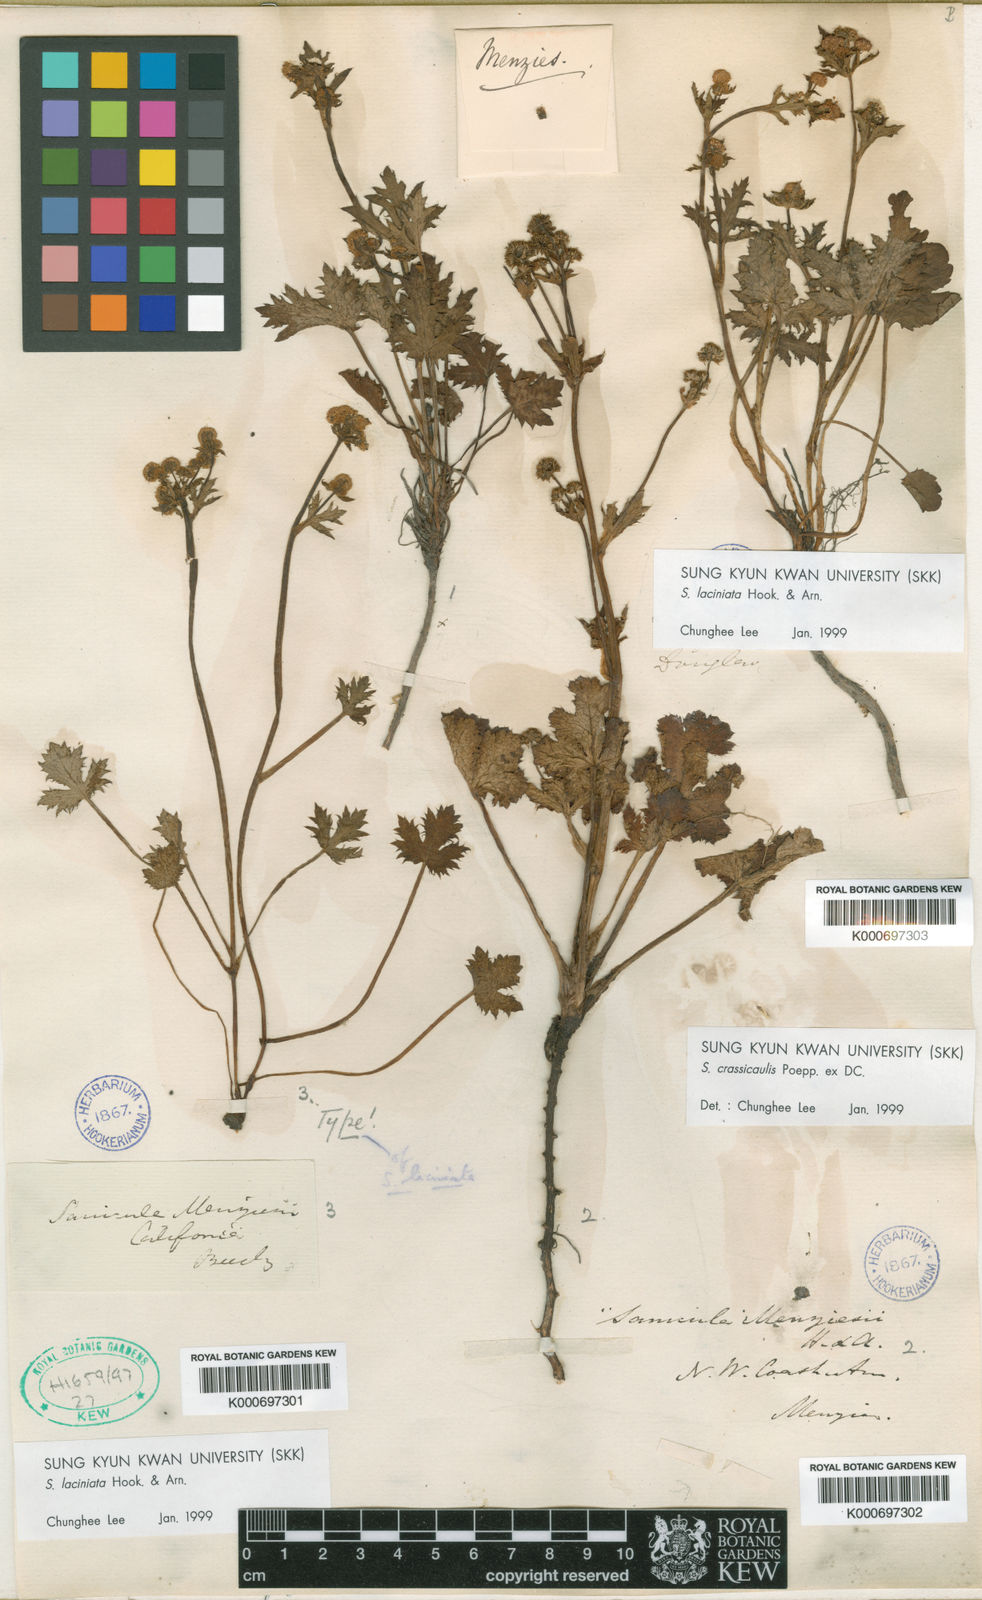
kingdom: Plantae
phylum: Tracheophyta
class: Magnoliopsida
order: Apiales
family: Apiaceae
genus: Sanicula
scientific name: Sanicula crassicaulis
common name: Western snakeroot
